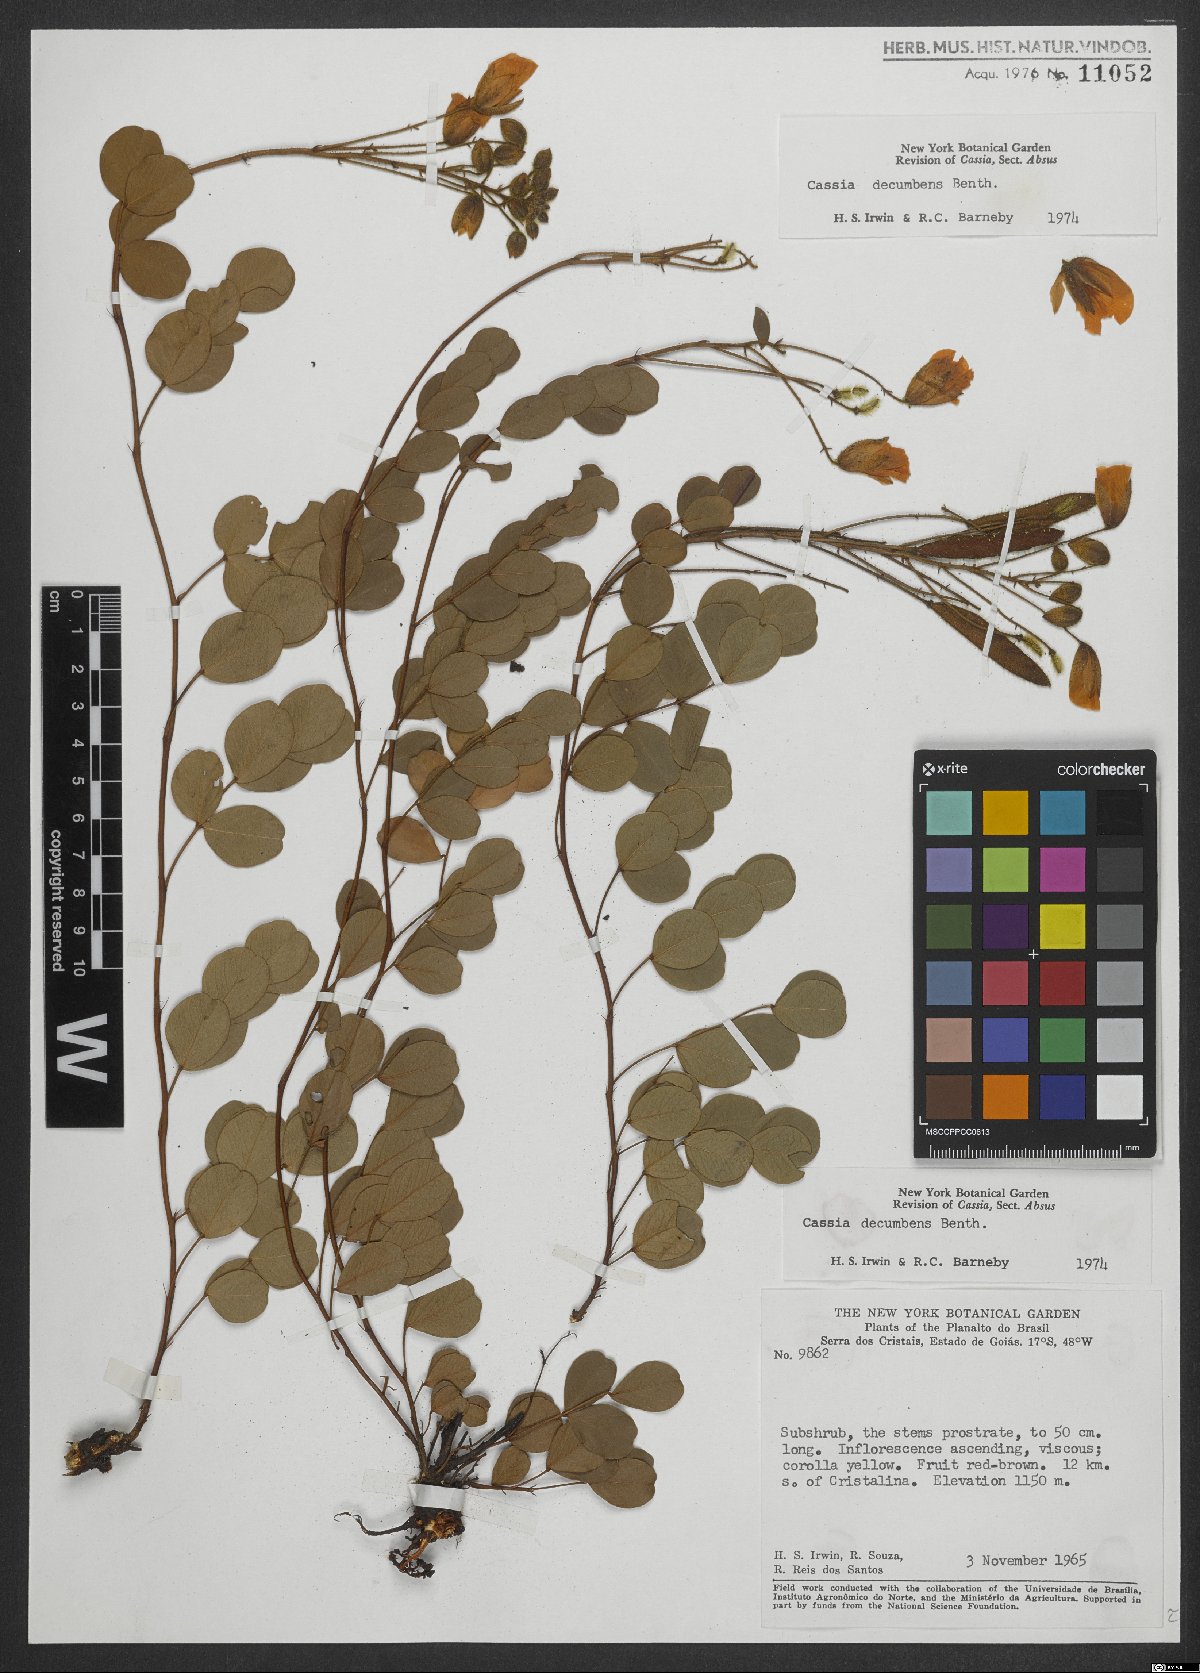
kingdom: Plantae
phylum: Tracheophyta
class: Magnoliopsida
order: Fabales
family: Fabaceae
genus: Chamaecrista
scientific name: Chamaecrista decumbens
